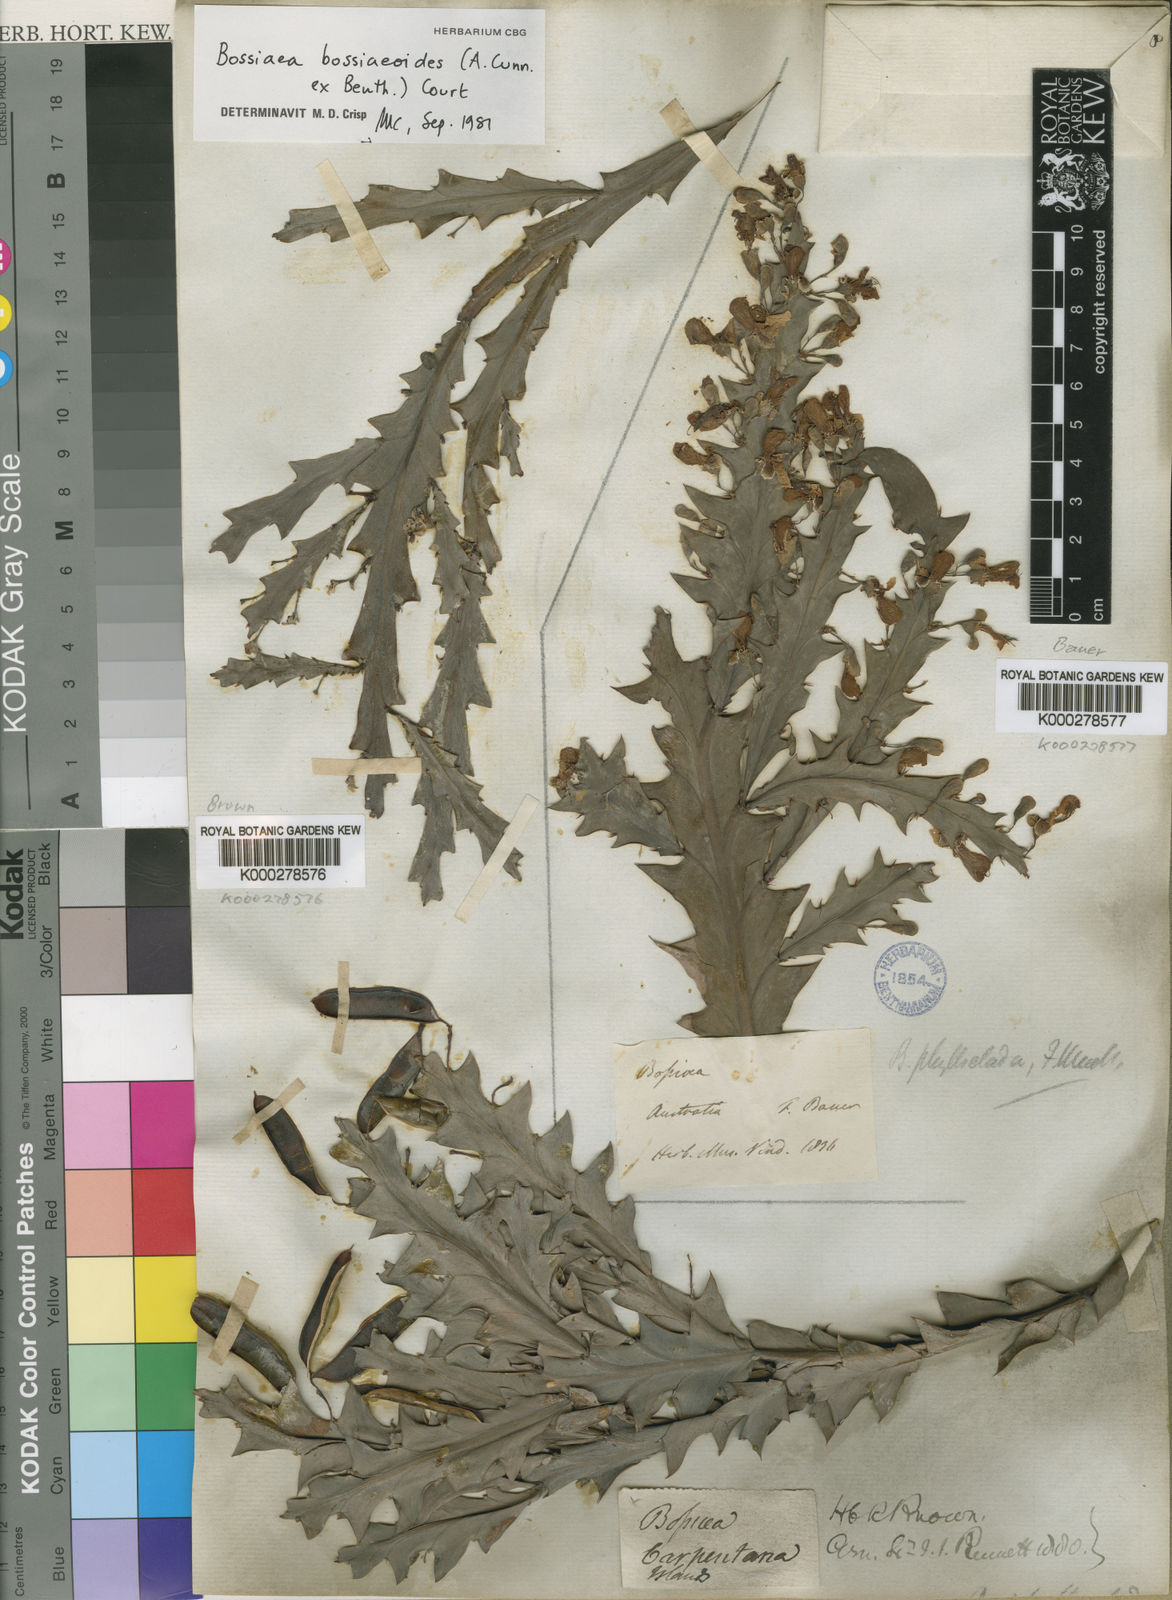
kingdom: Plantae
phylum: Tracheophyta
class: Magnoliopsida
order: Fabales
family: Fabaceae
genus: Bossiaea
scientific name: Bossiaea
